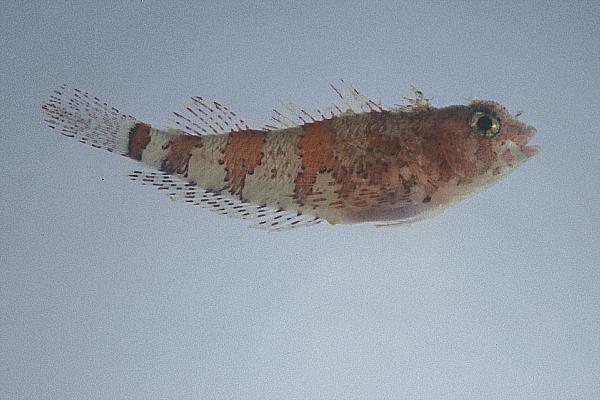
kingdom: Animalia
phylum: Chordata
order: Perciformes
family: Tripterygiidae
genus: Acanthanectes
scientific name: Acanthanectes hystrix
